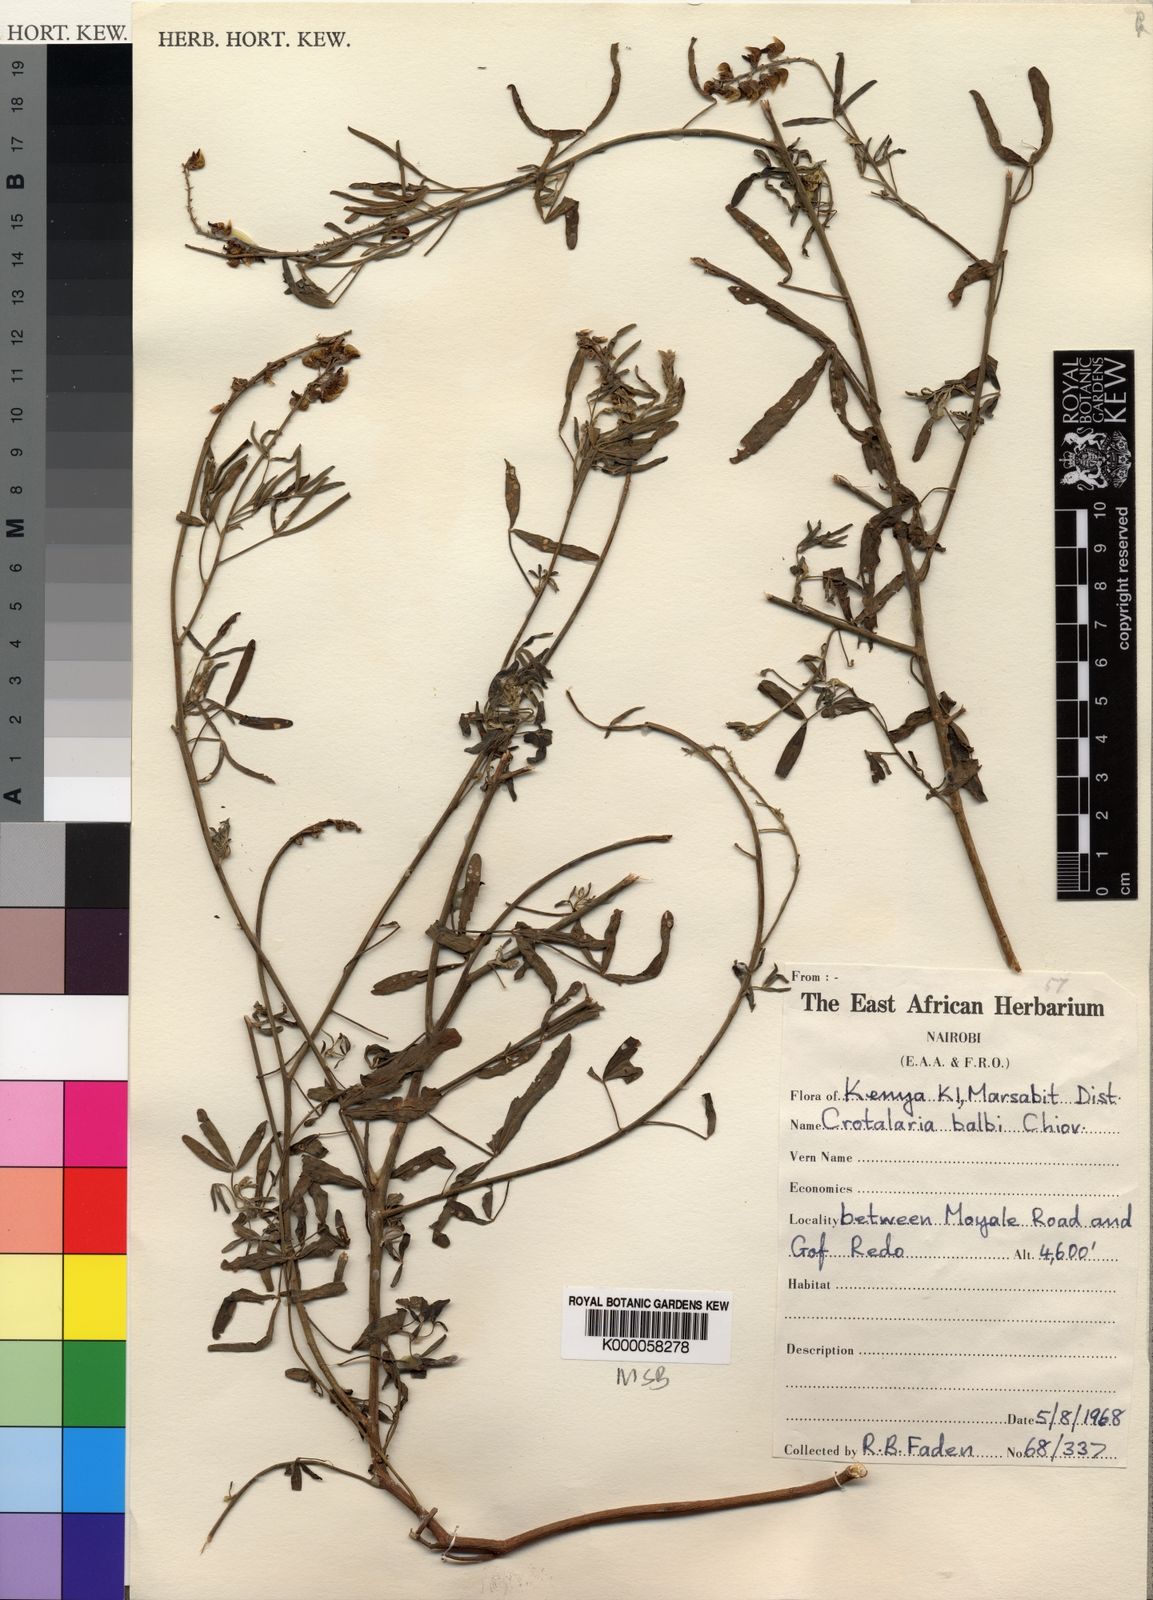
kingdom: Plantae
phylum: Tracheophyta
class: Magnoliopsida
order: Fabales
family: Fabaceae
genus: Crotalaria
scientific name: Crotalaria balbi
